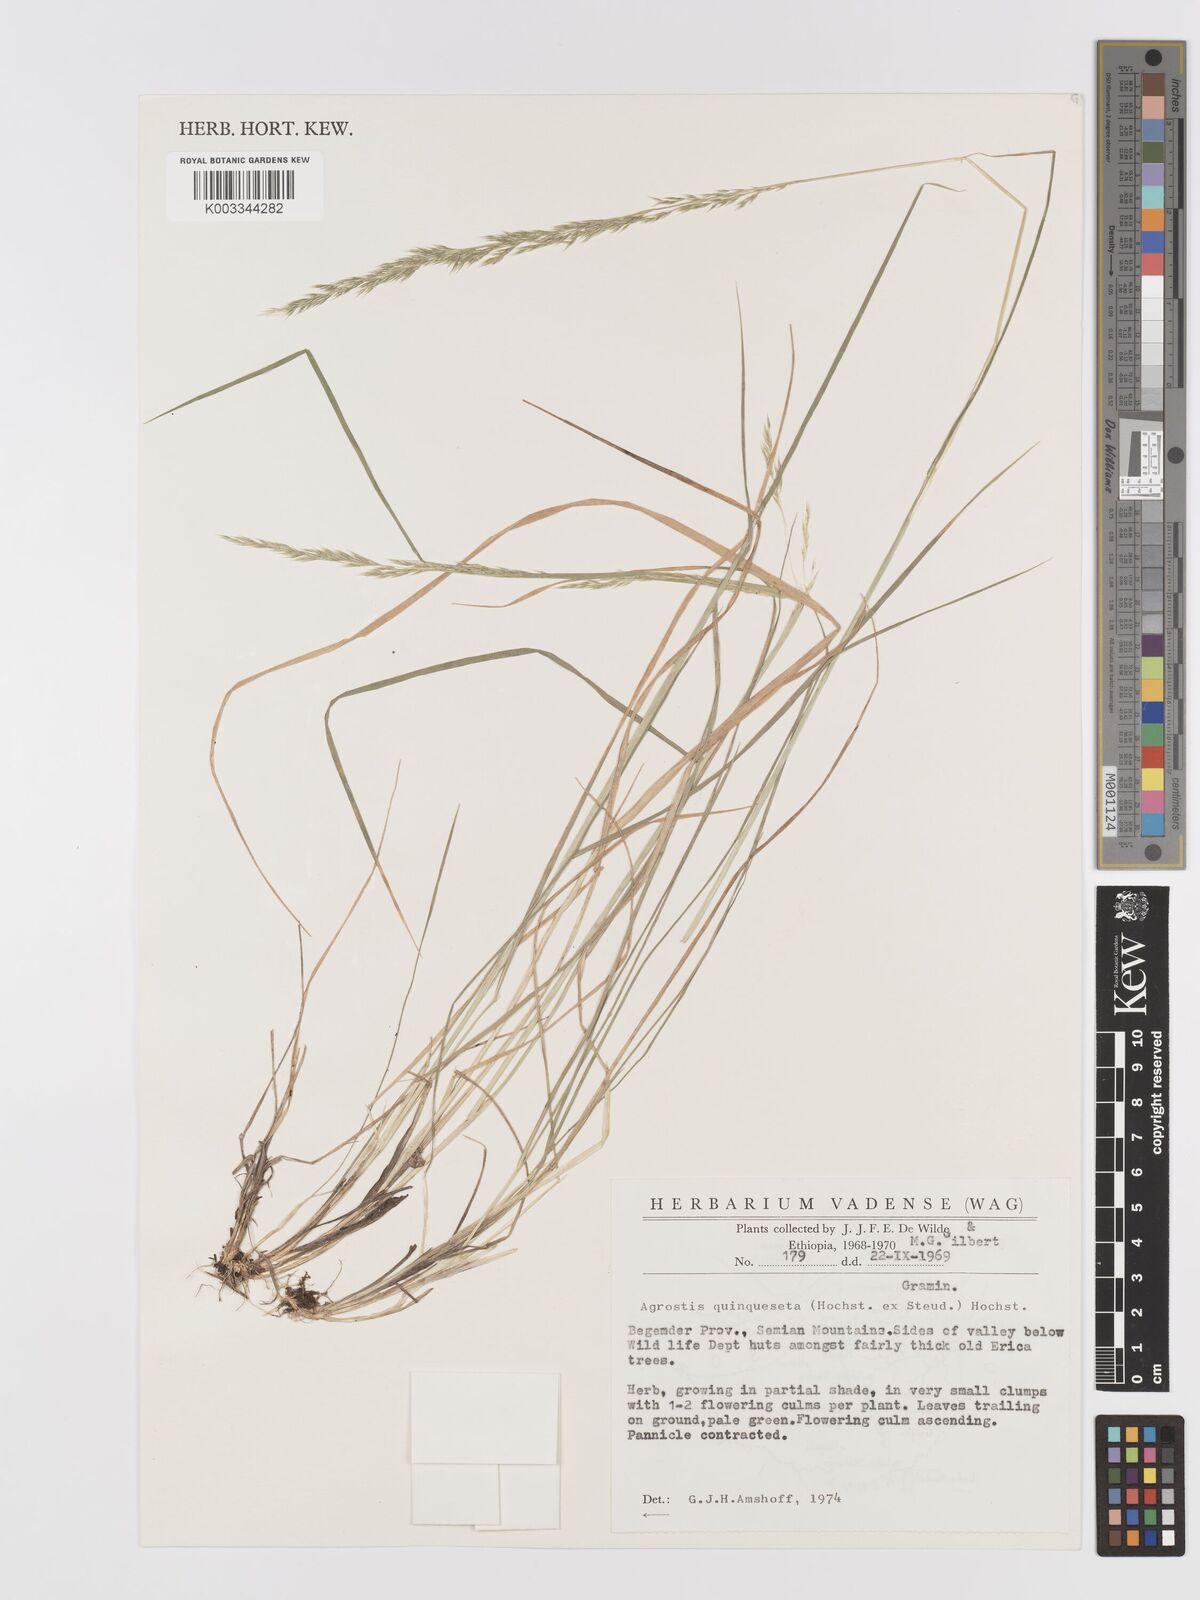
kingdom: Plantae
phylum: Tracheophyta
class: Liliopsida
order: Poales
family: Poaceae
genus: Agrostis
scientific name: Agrostis quinqueseta
